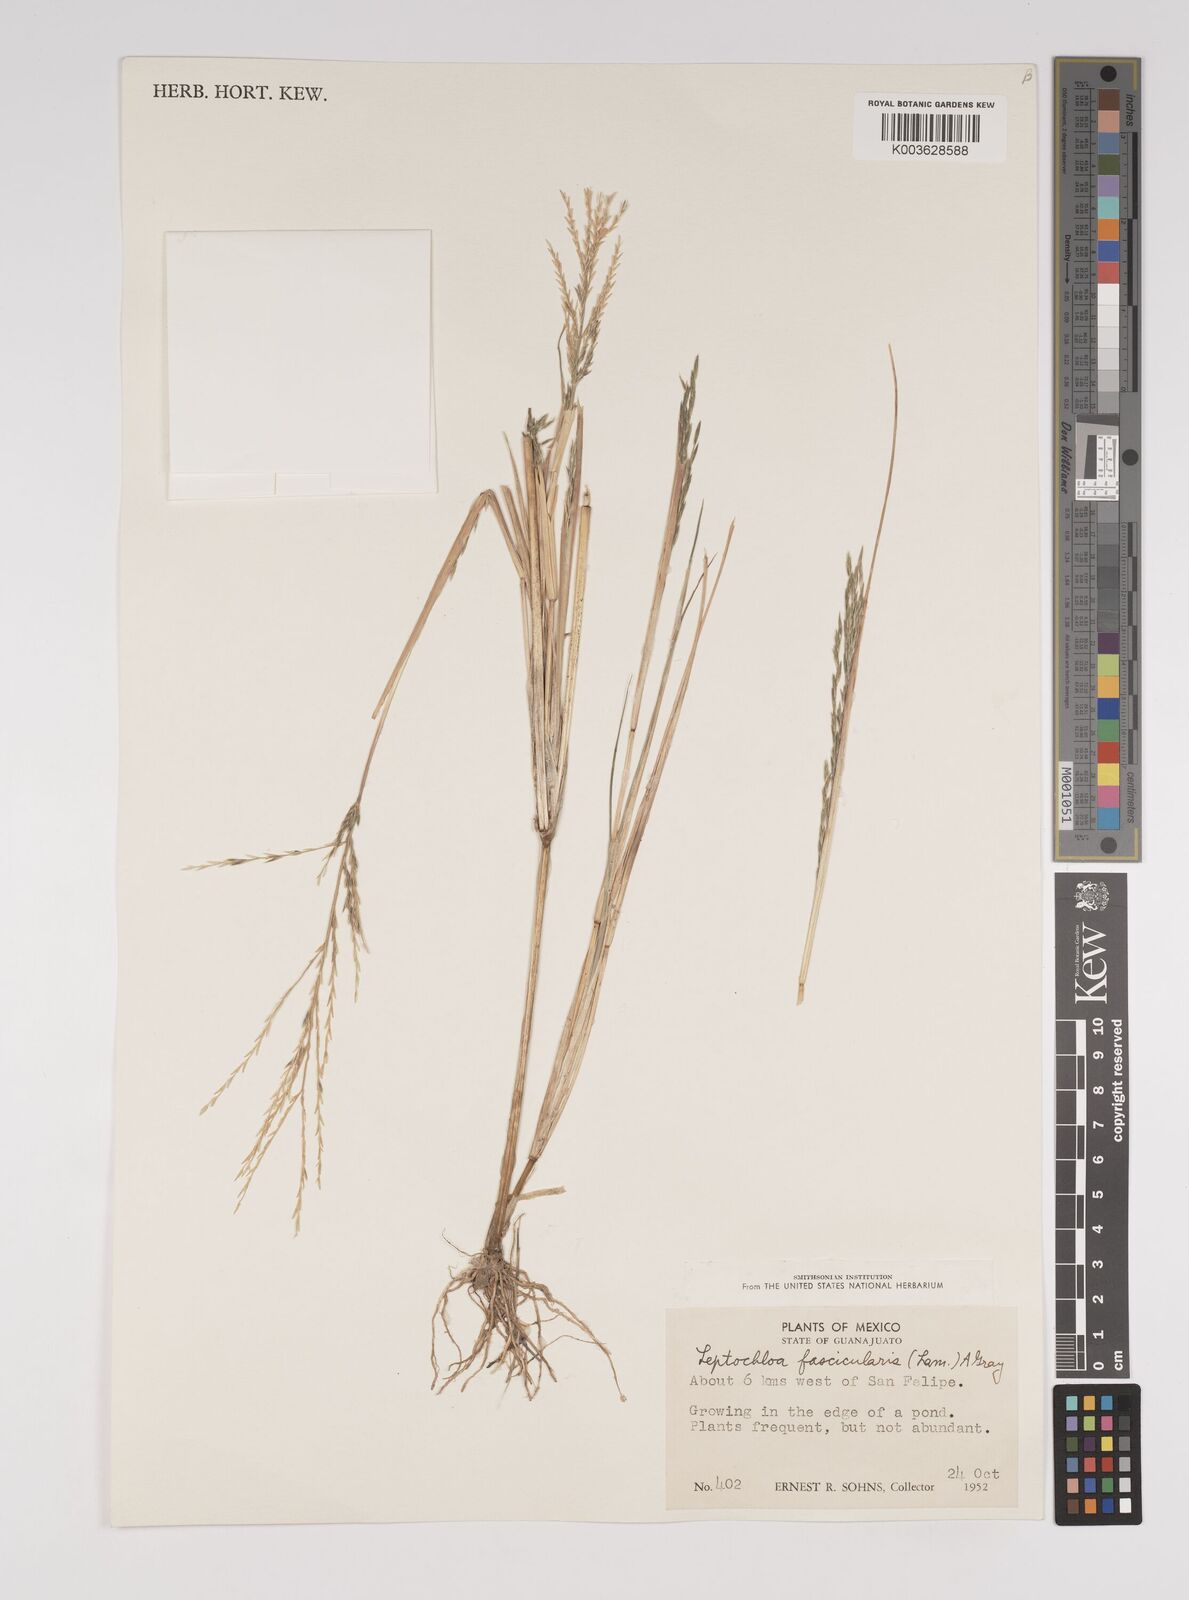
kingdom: Plantae
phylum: Tracheophyta
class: Liliopsida
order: Poales
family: Poaceae
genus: Diplachne
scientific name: Diplachne fusca
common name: Brown beetle grass
